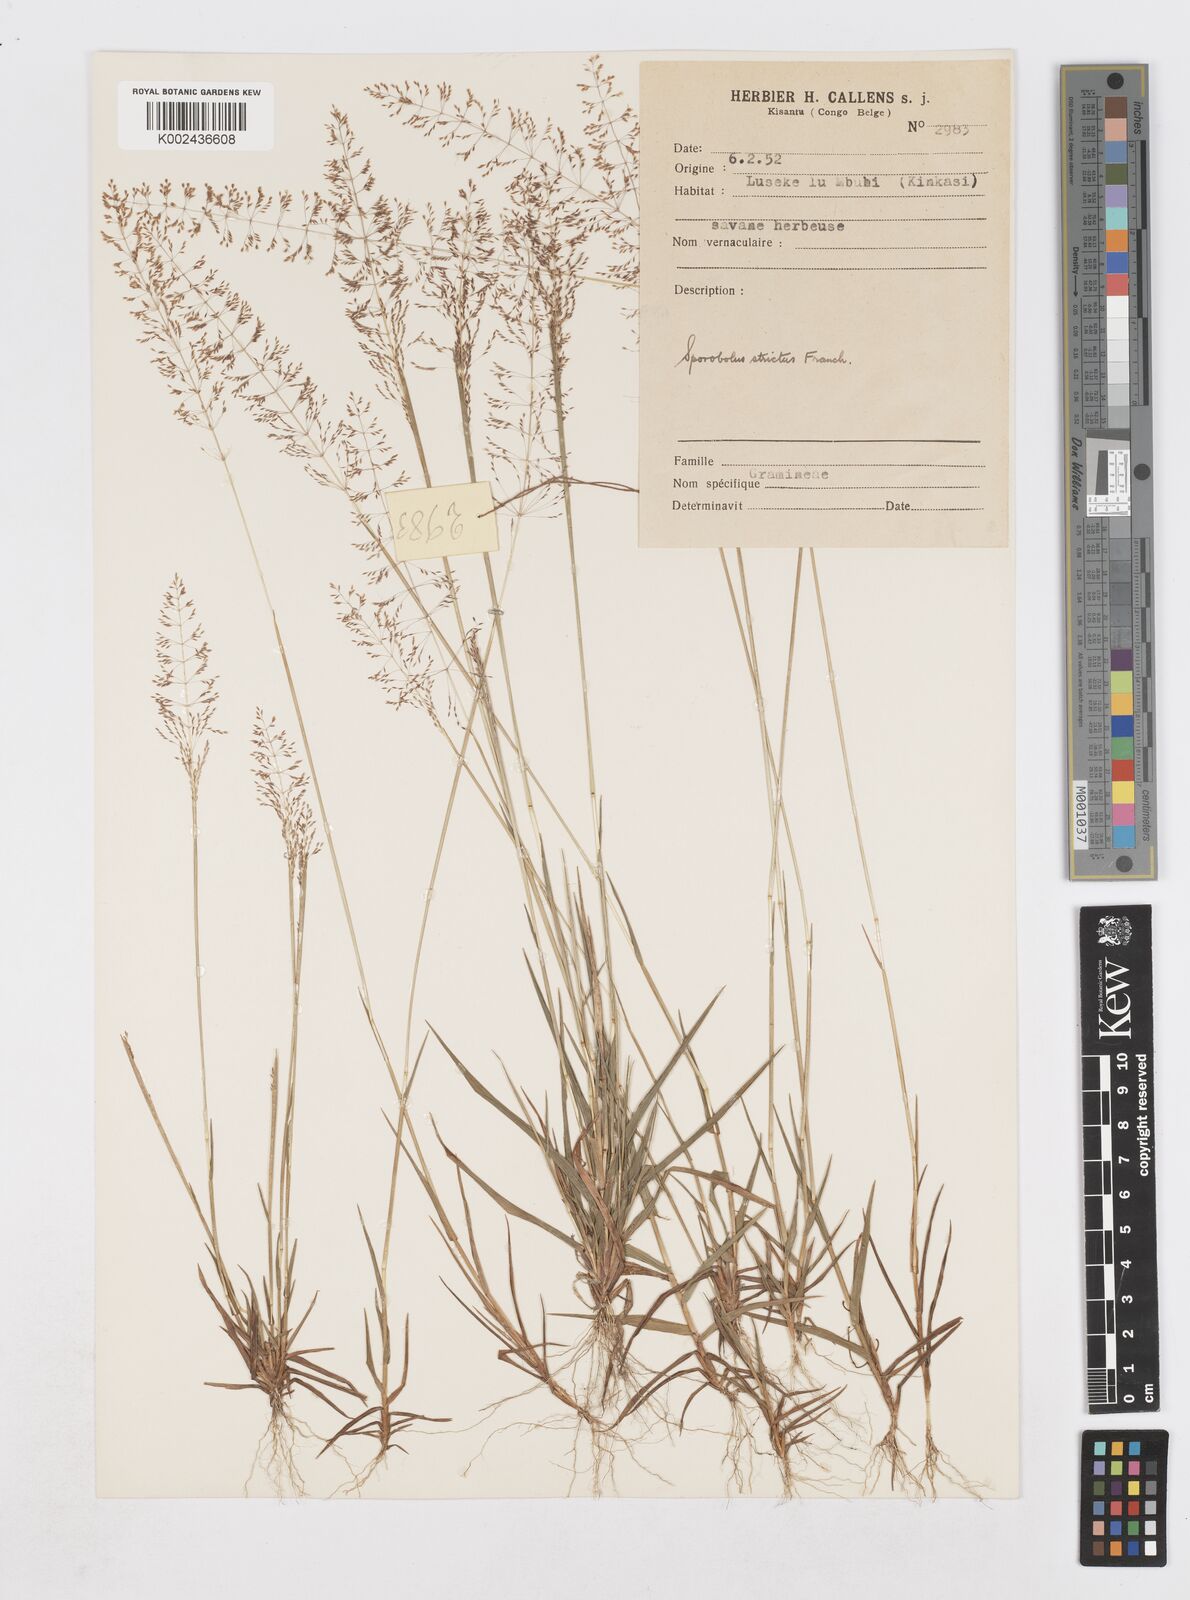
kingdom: Plantae
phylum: Tracheophyta
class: Liliopsida
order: Poales
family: Poaceae
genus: Sporobolus
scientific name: Sporobolus paniculatus
